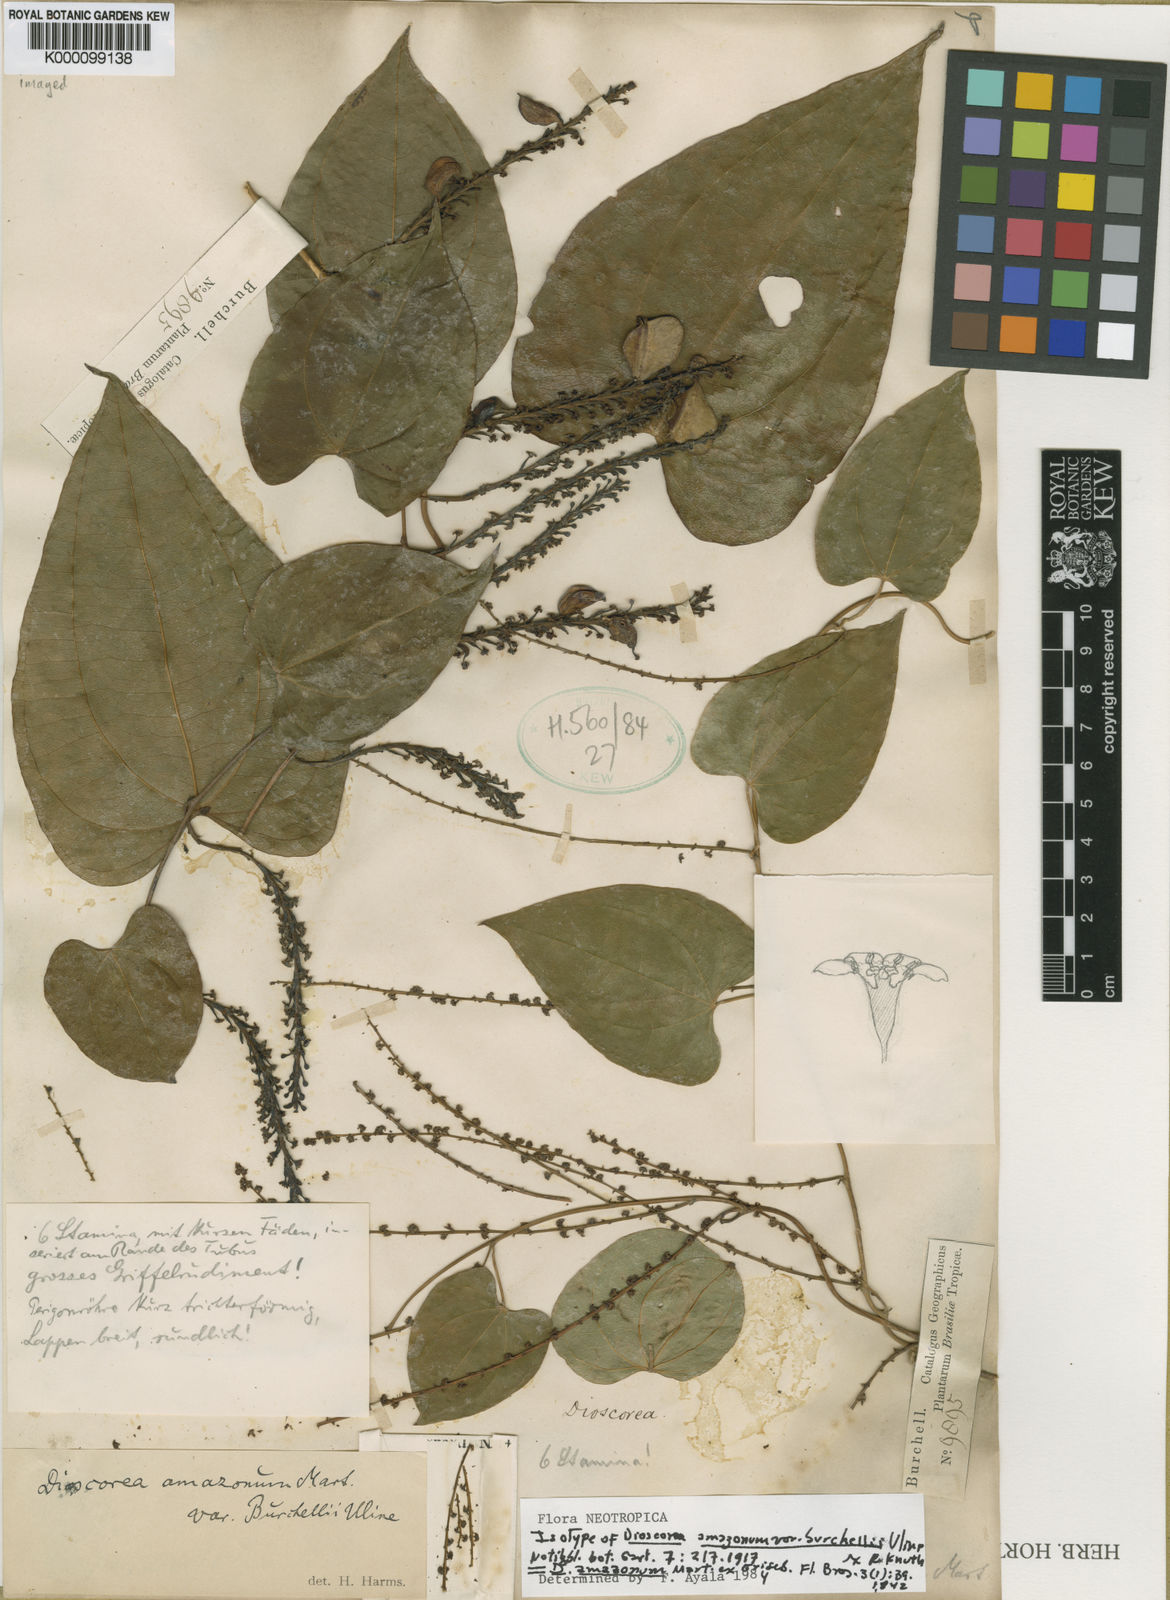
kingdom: Plantae
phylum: Tracheophyta
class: Liliopsida
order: Dioscoreales
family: Dioscoreaceae
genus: Dioscorea
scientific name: Dioscorea amazonum
